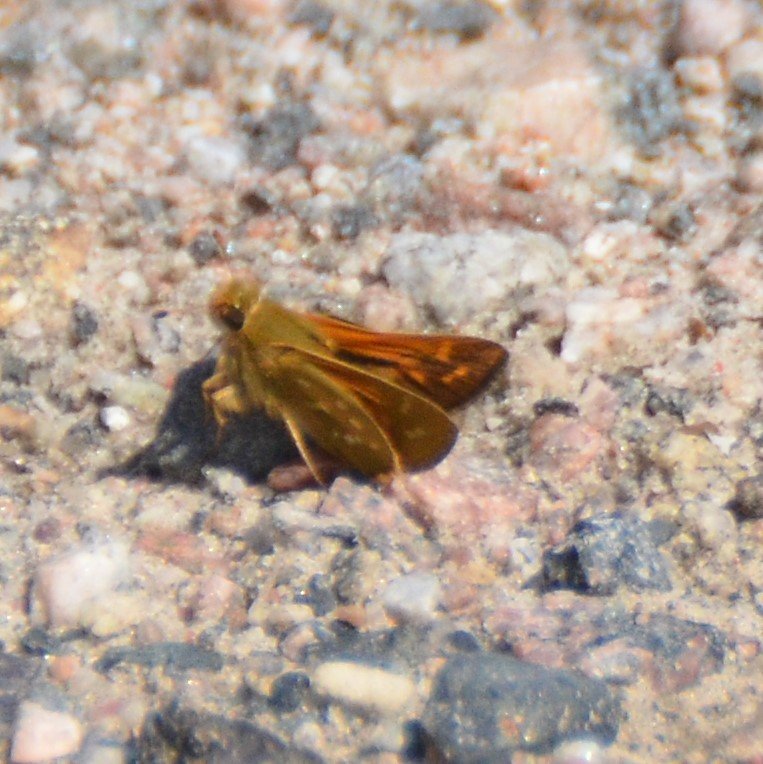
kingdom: Animalia
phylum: Arthropoda
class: Insecta
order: Lepidoptera
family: Hesperiidae
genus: Hesperia
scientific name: Hesperia comma
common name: Common Branded Skipper
